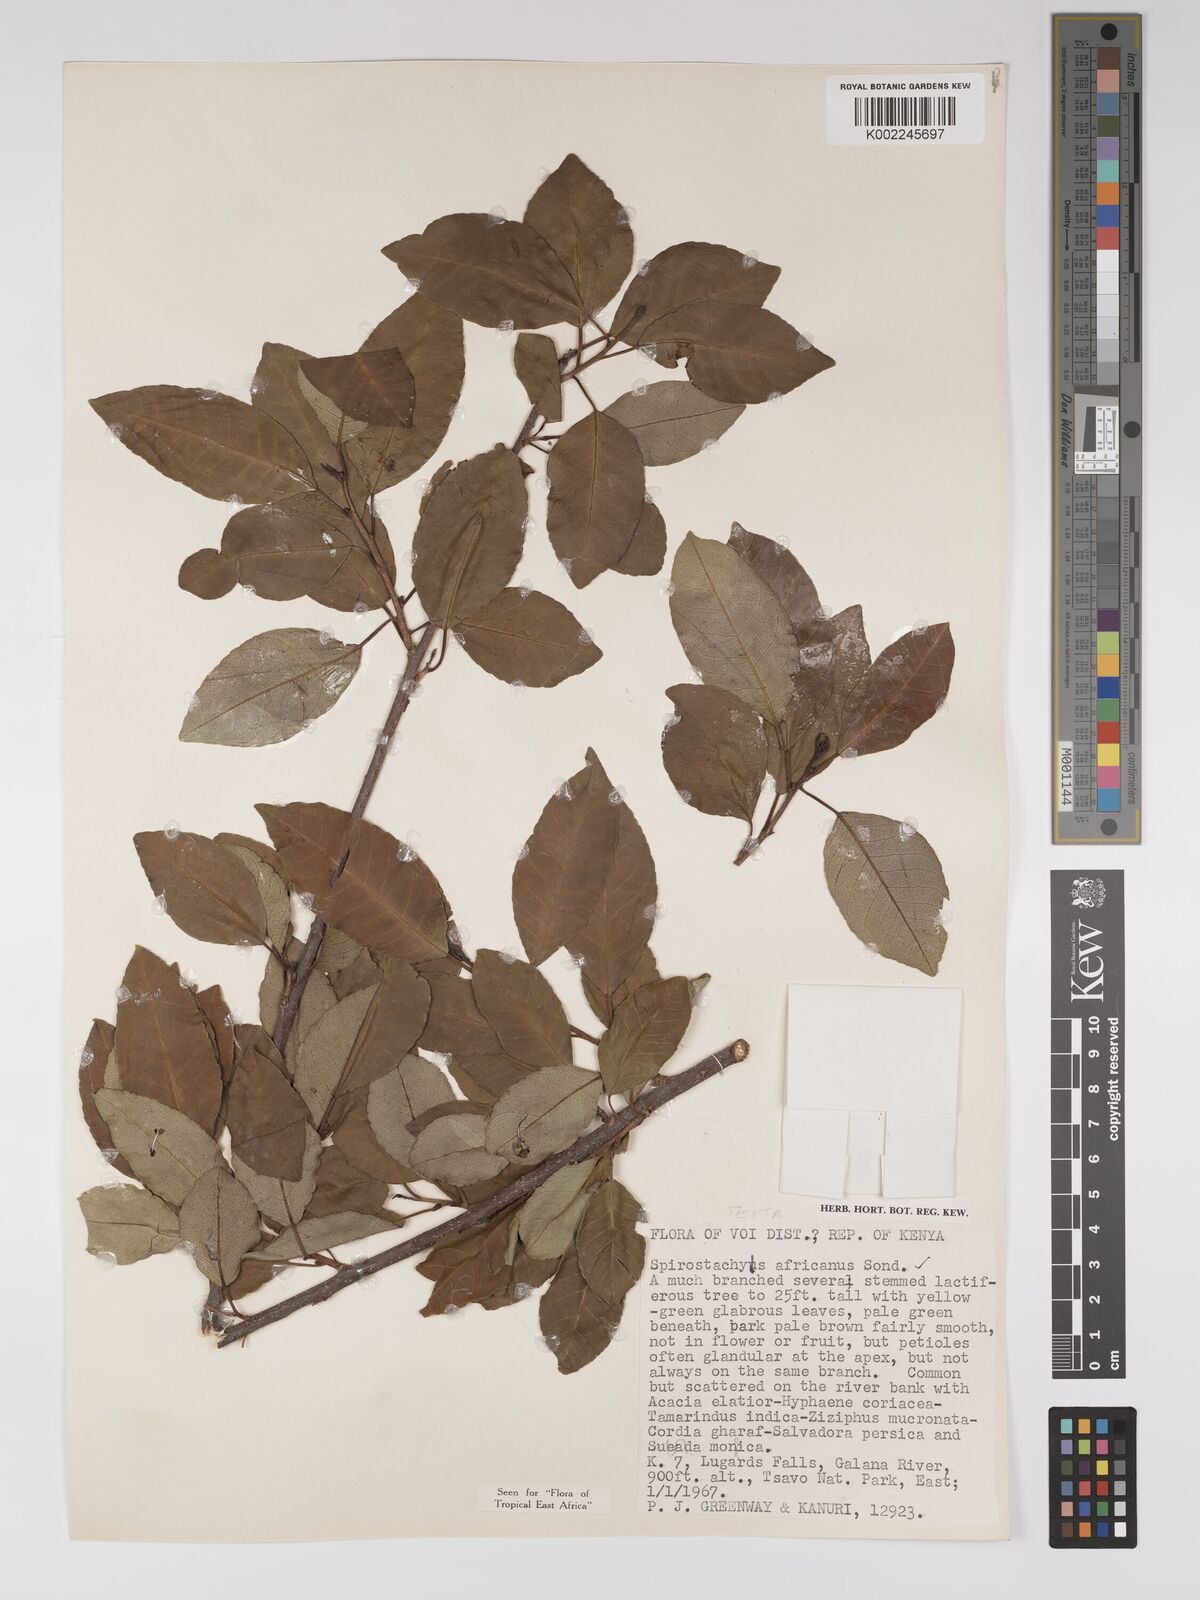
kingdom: Plantae
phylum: Tracheophyta
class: Magnoliopsida
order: Malpighiales
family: Euphorbiaceae
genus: Spirostachys
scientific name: Spirostachys africana
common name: Tamboti
